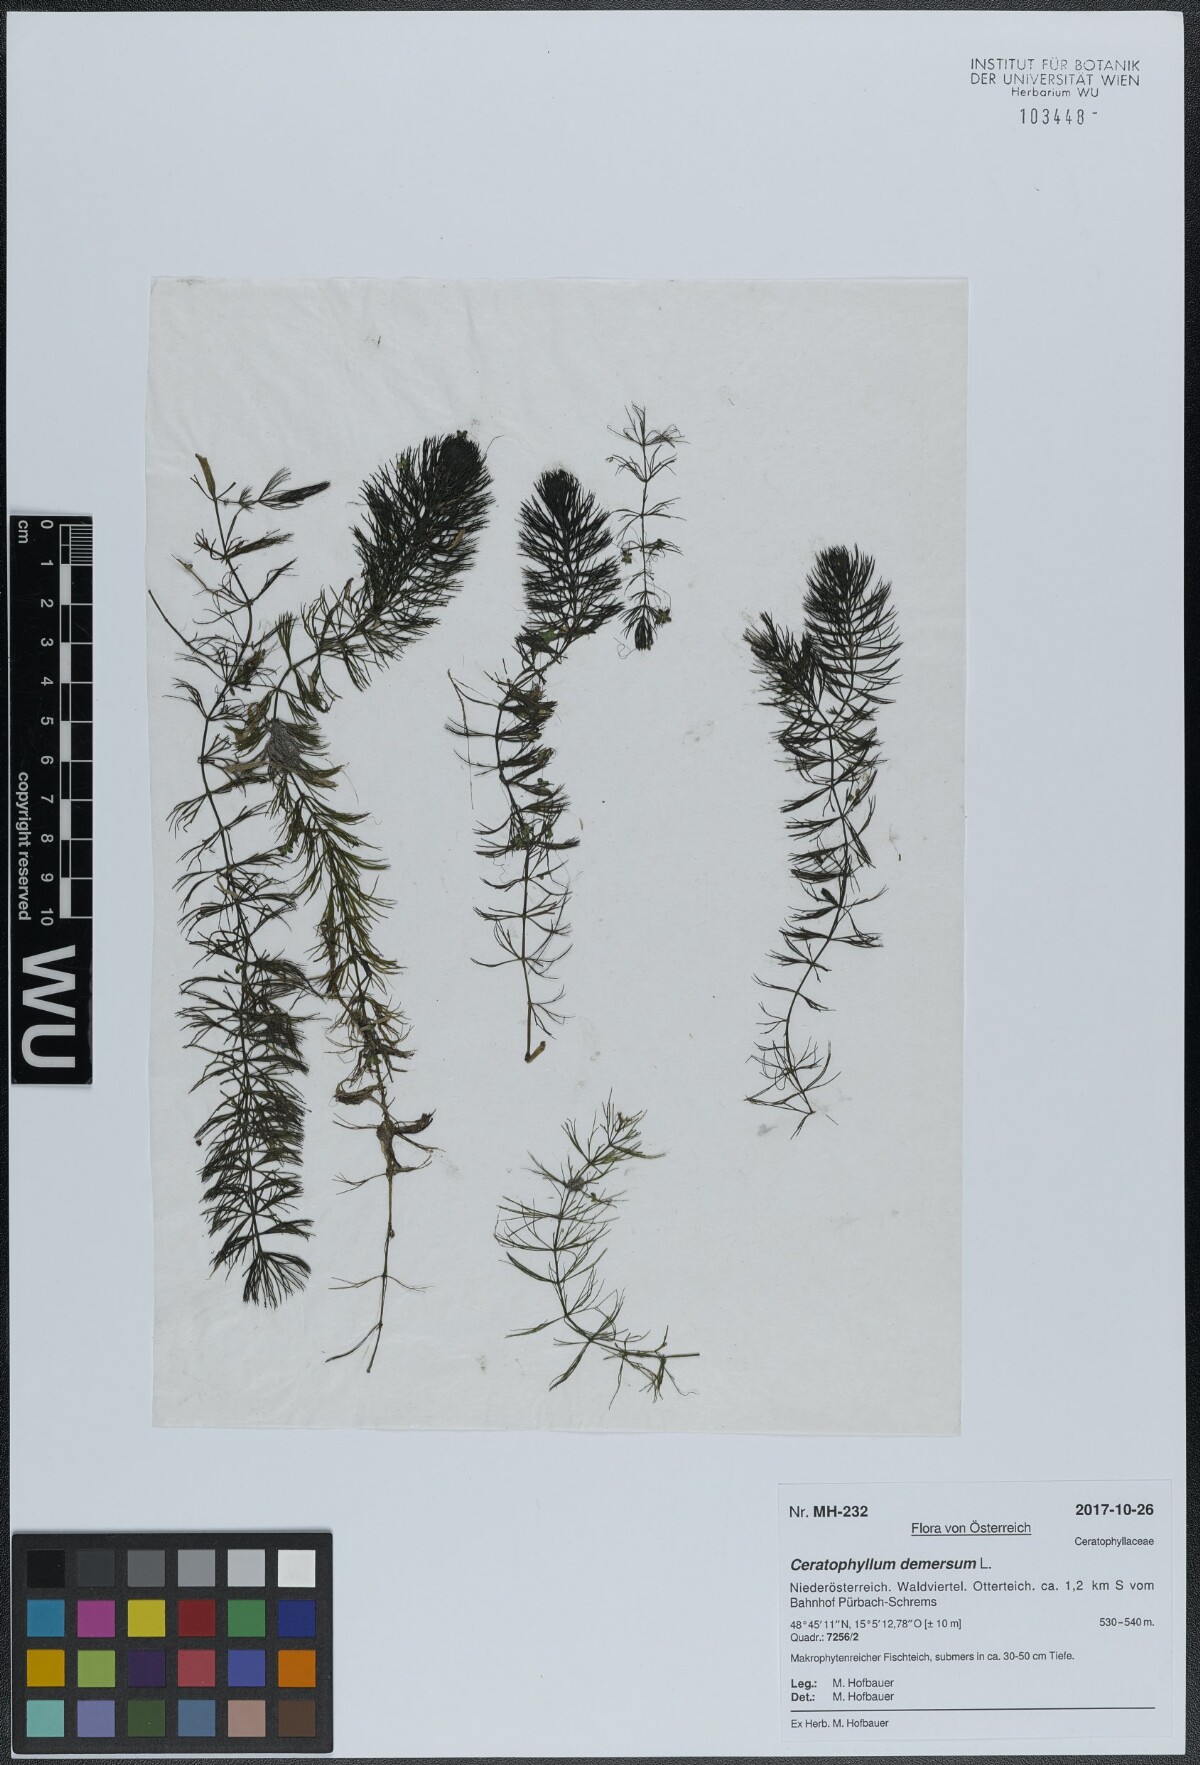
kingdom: Plantae
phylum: Tracheophyta
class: Magnoliopsida
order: Ceratophyllales
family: Ceratophyllaceae
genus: Ceratophyllum
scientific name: Ceratophyllum demersum
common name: Rigid hornwort
